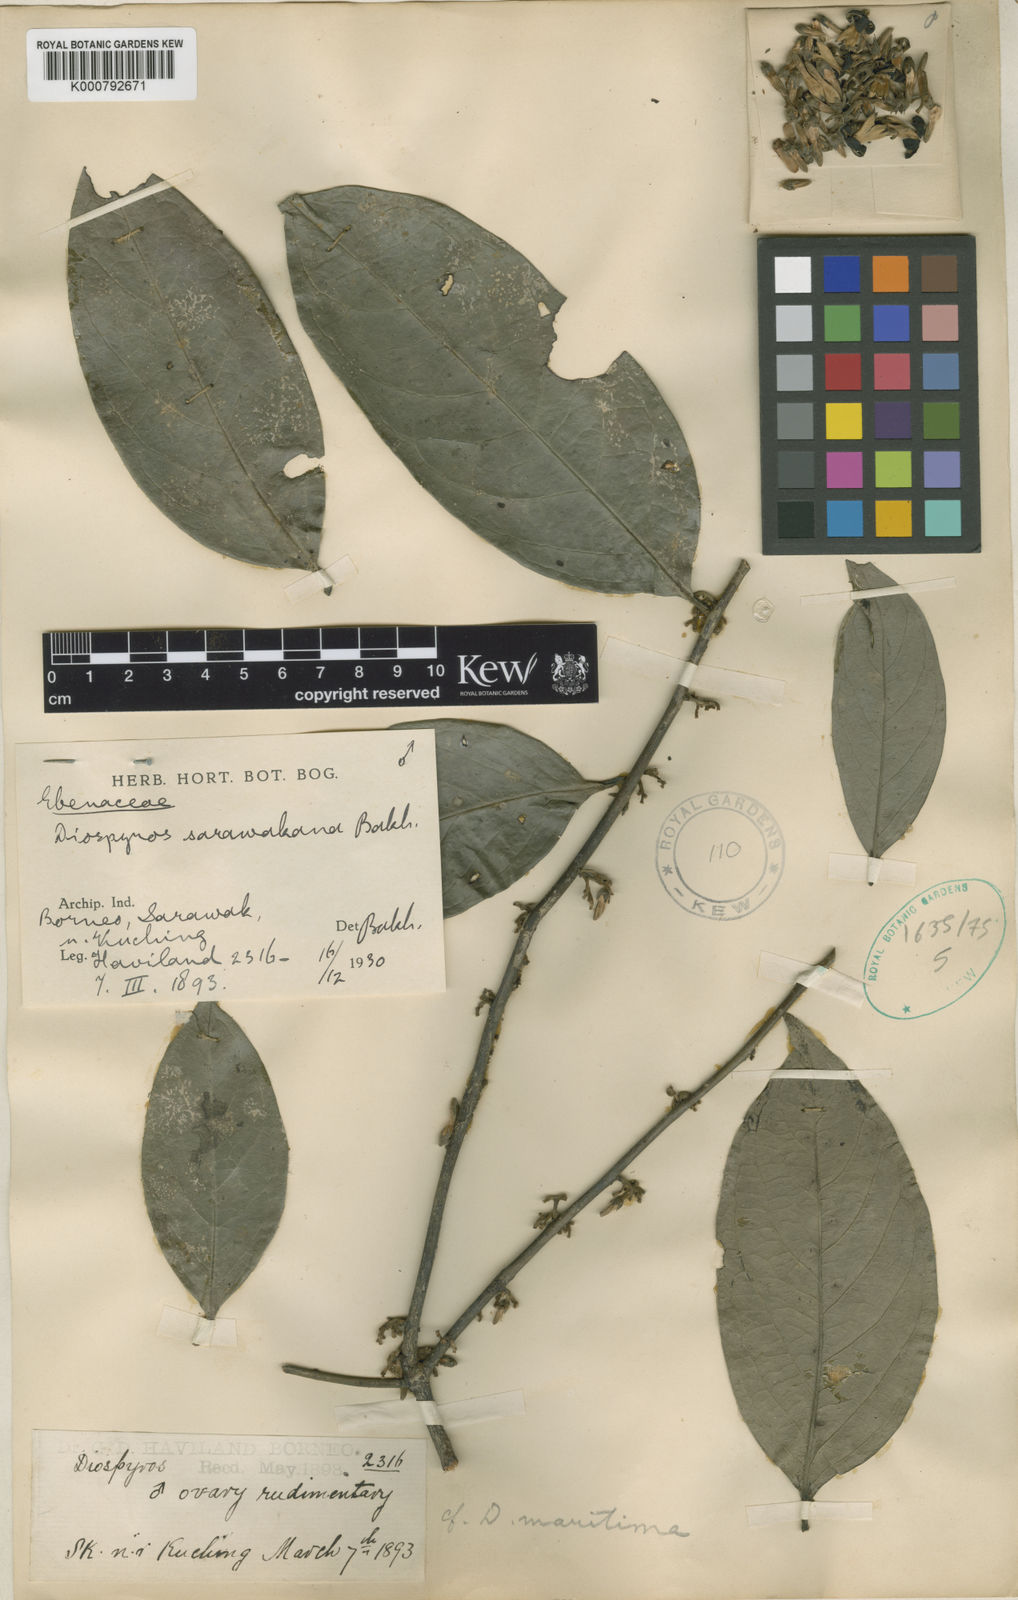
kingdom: Plantae
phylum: Tracheophyta
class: Magnoliopsida
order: Ericales
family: Ebenaceae
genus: Diospyros
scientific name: Diospyros styraciformis
